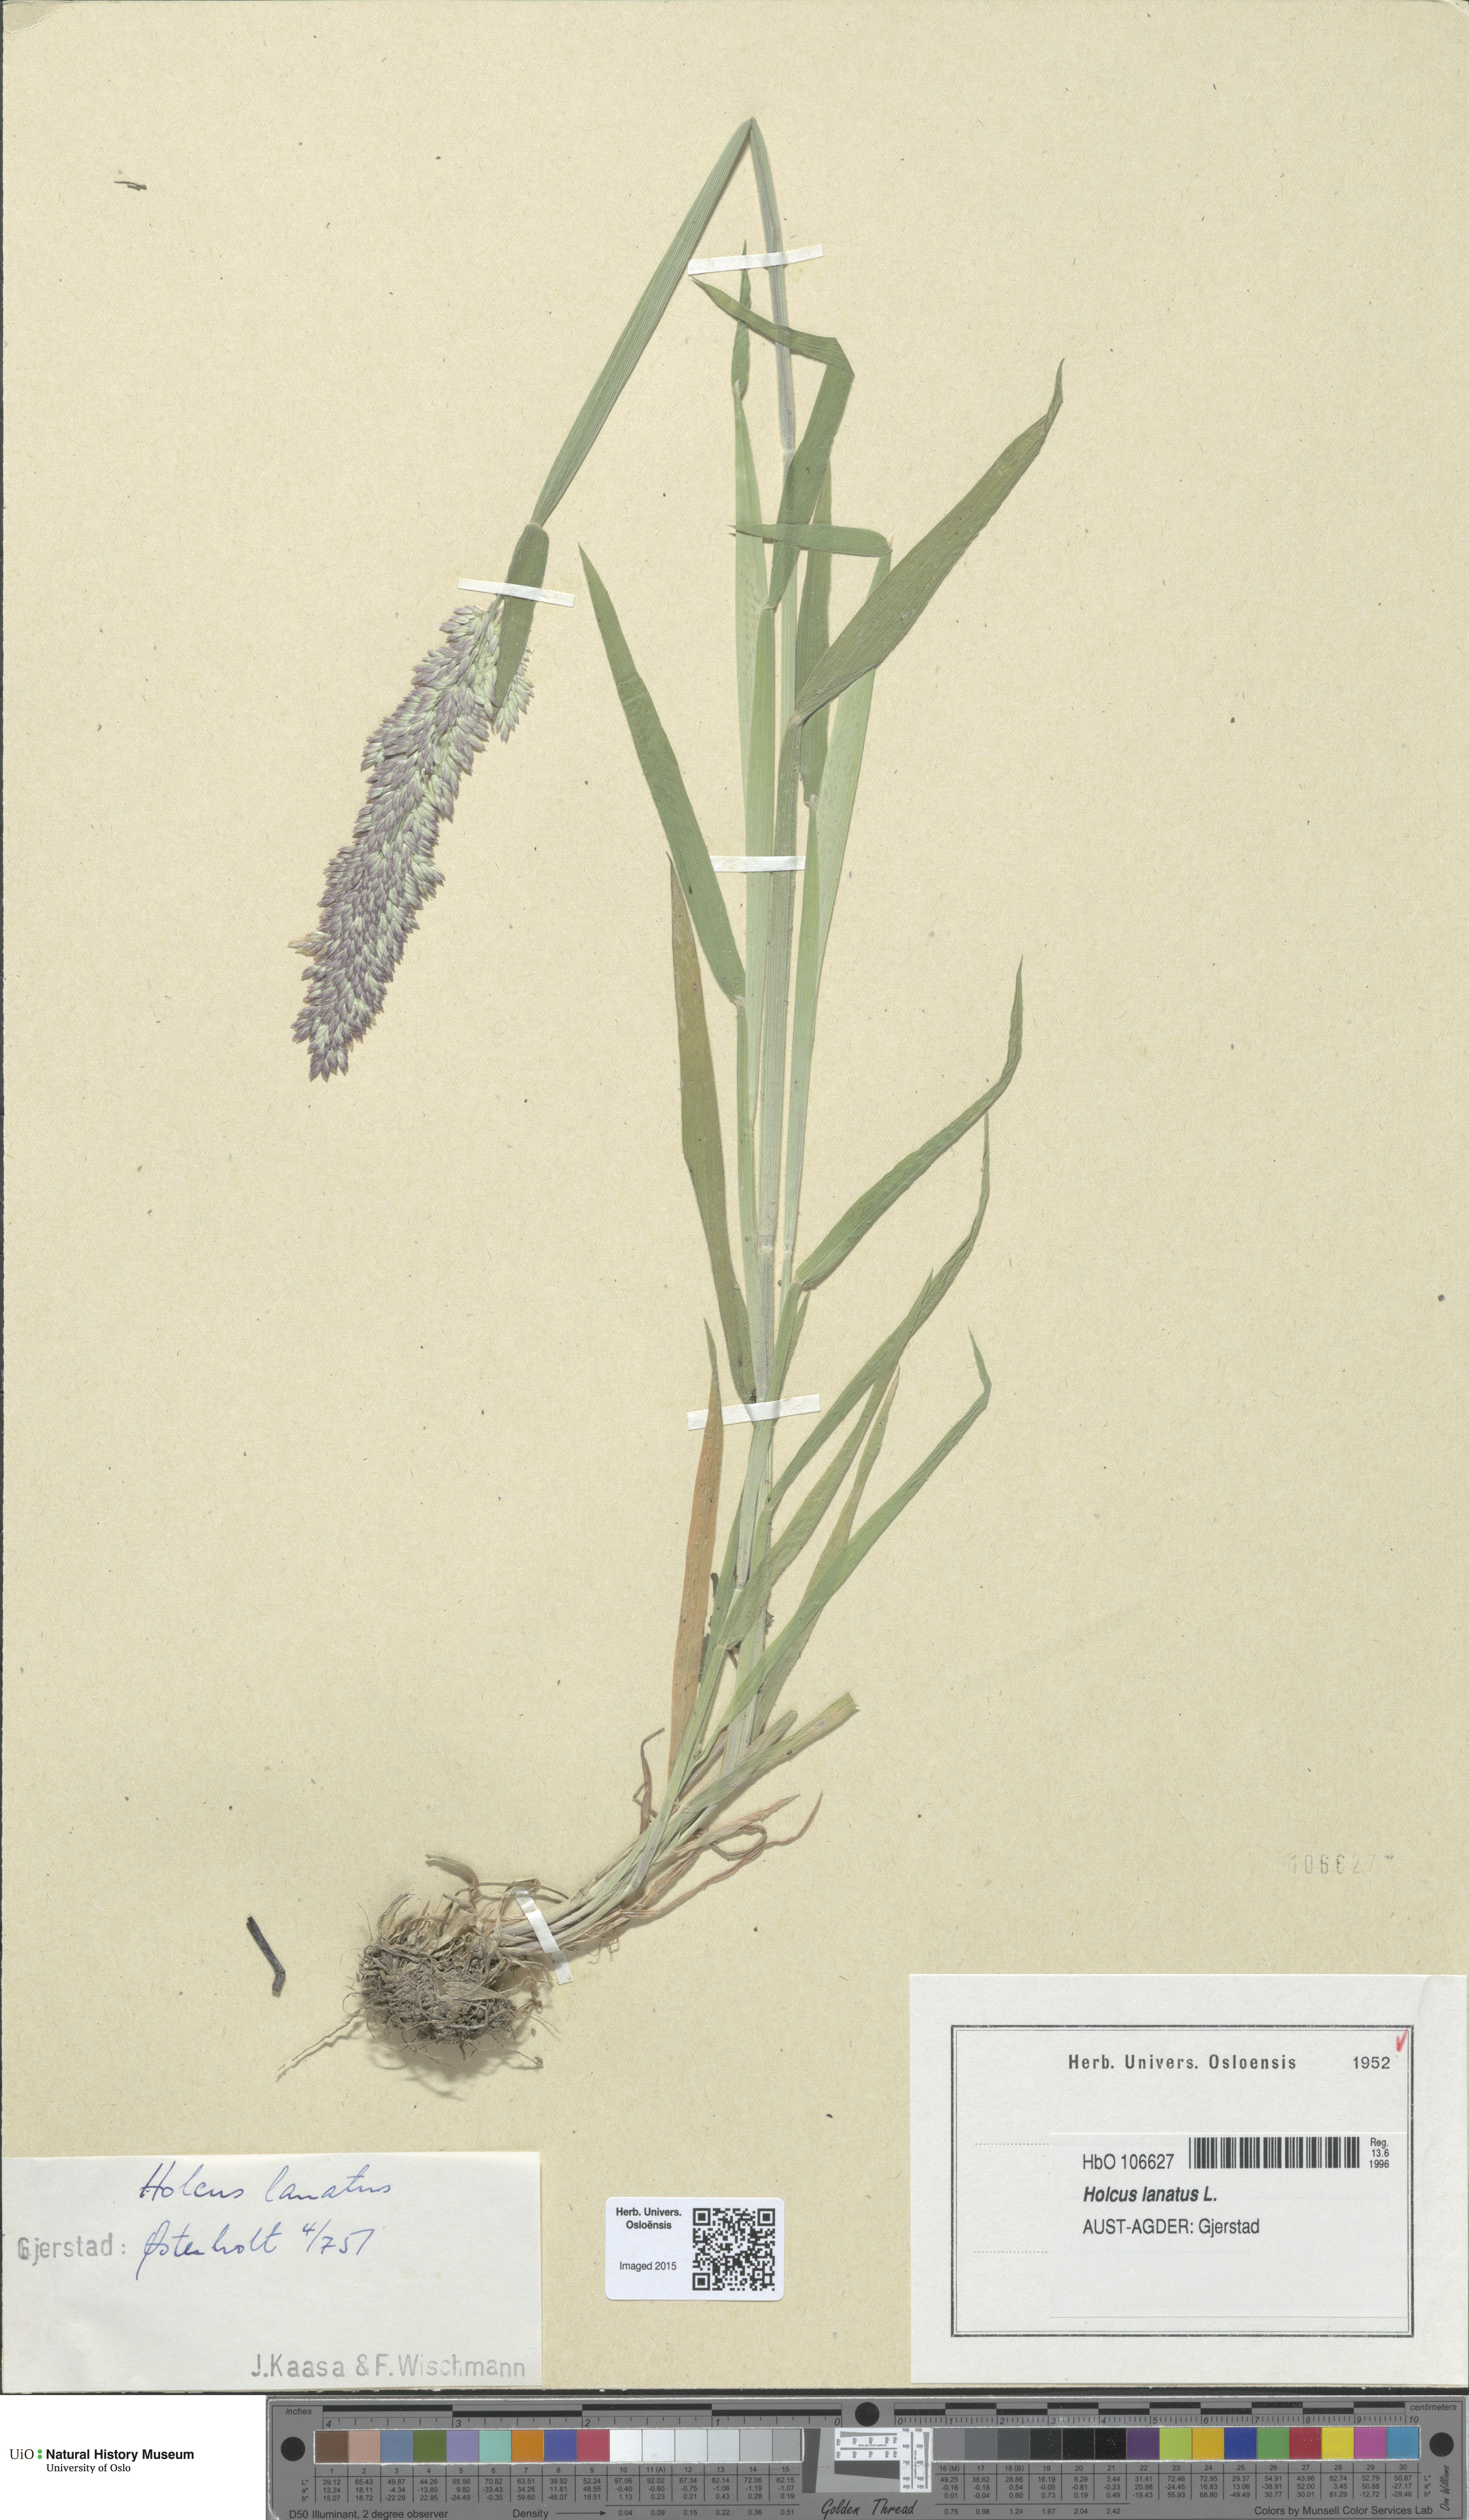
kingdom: Plantae
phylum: Tracheophyta
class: Liliopsida
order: Poales
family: Poaceae
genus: Holcus
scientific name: Holcus lanatus
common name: Yorkshire-fog
